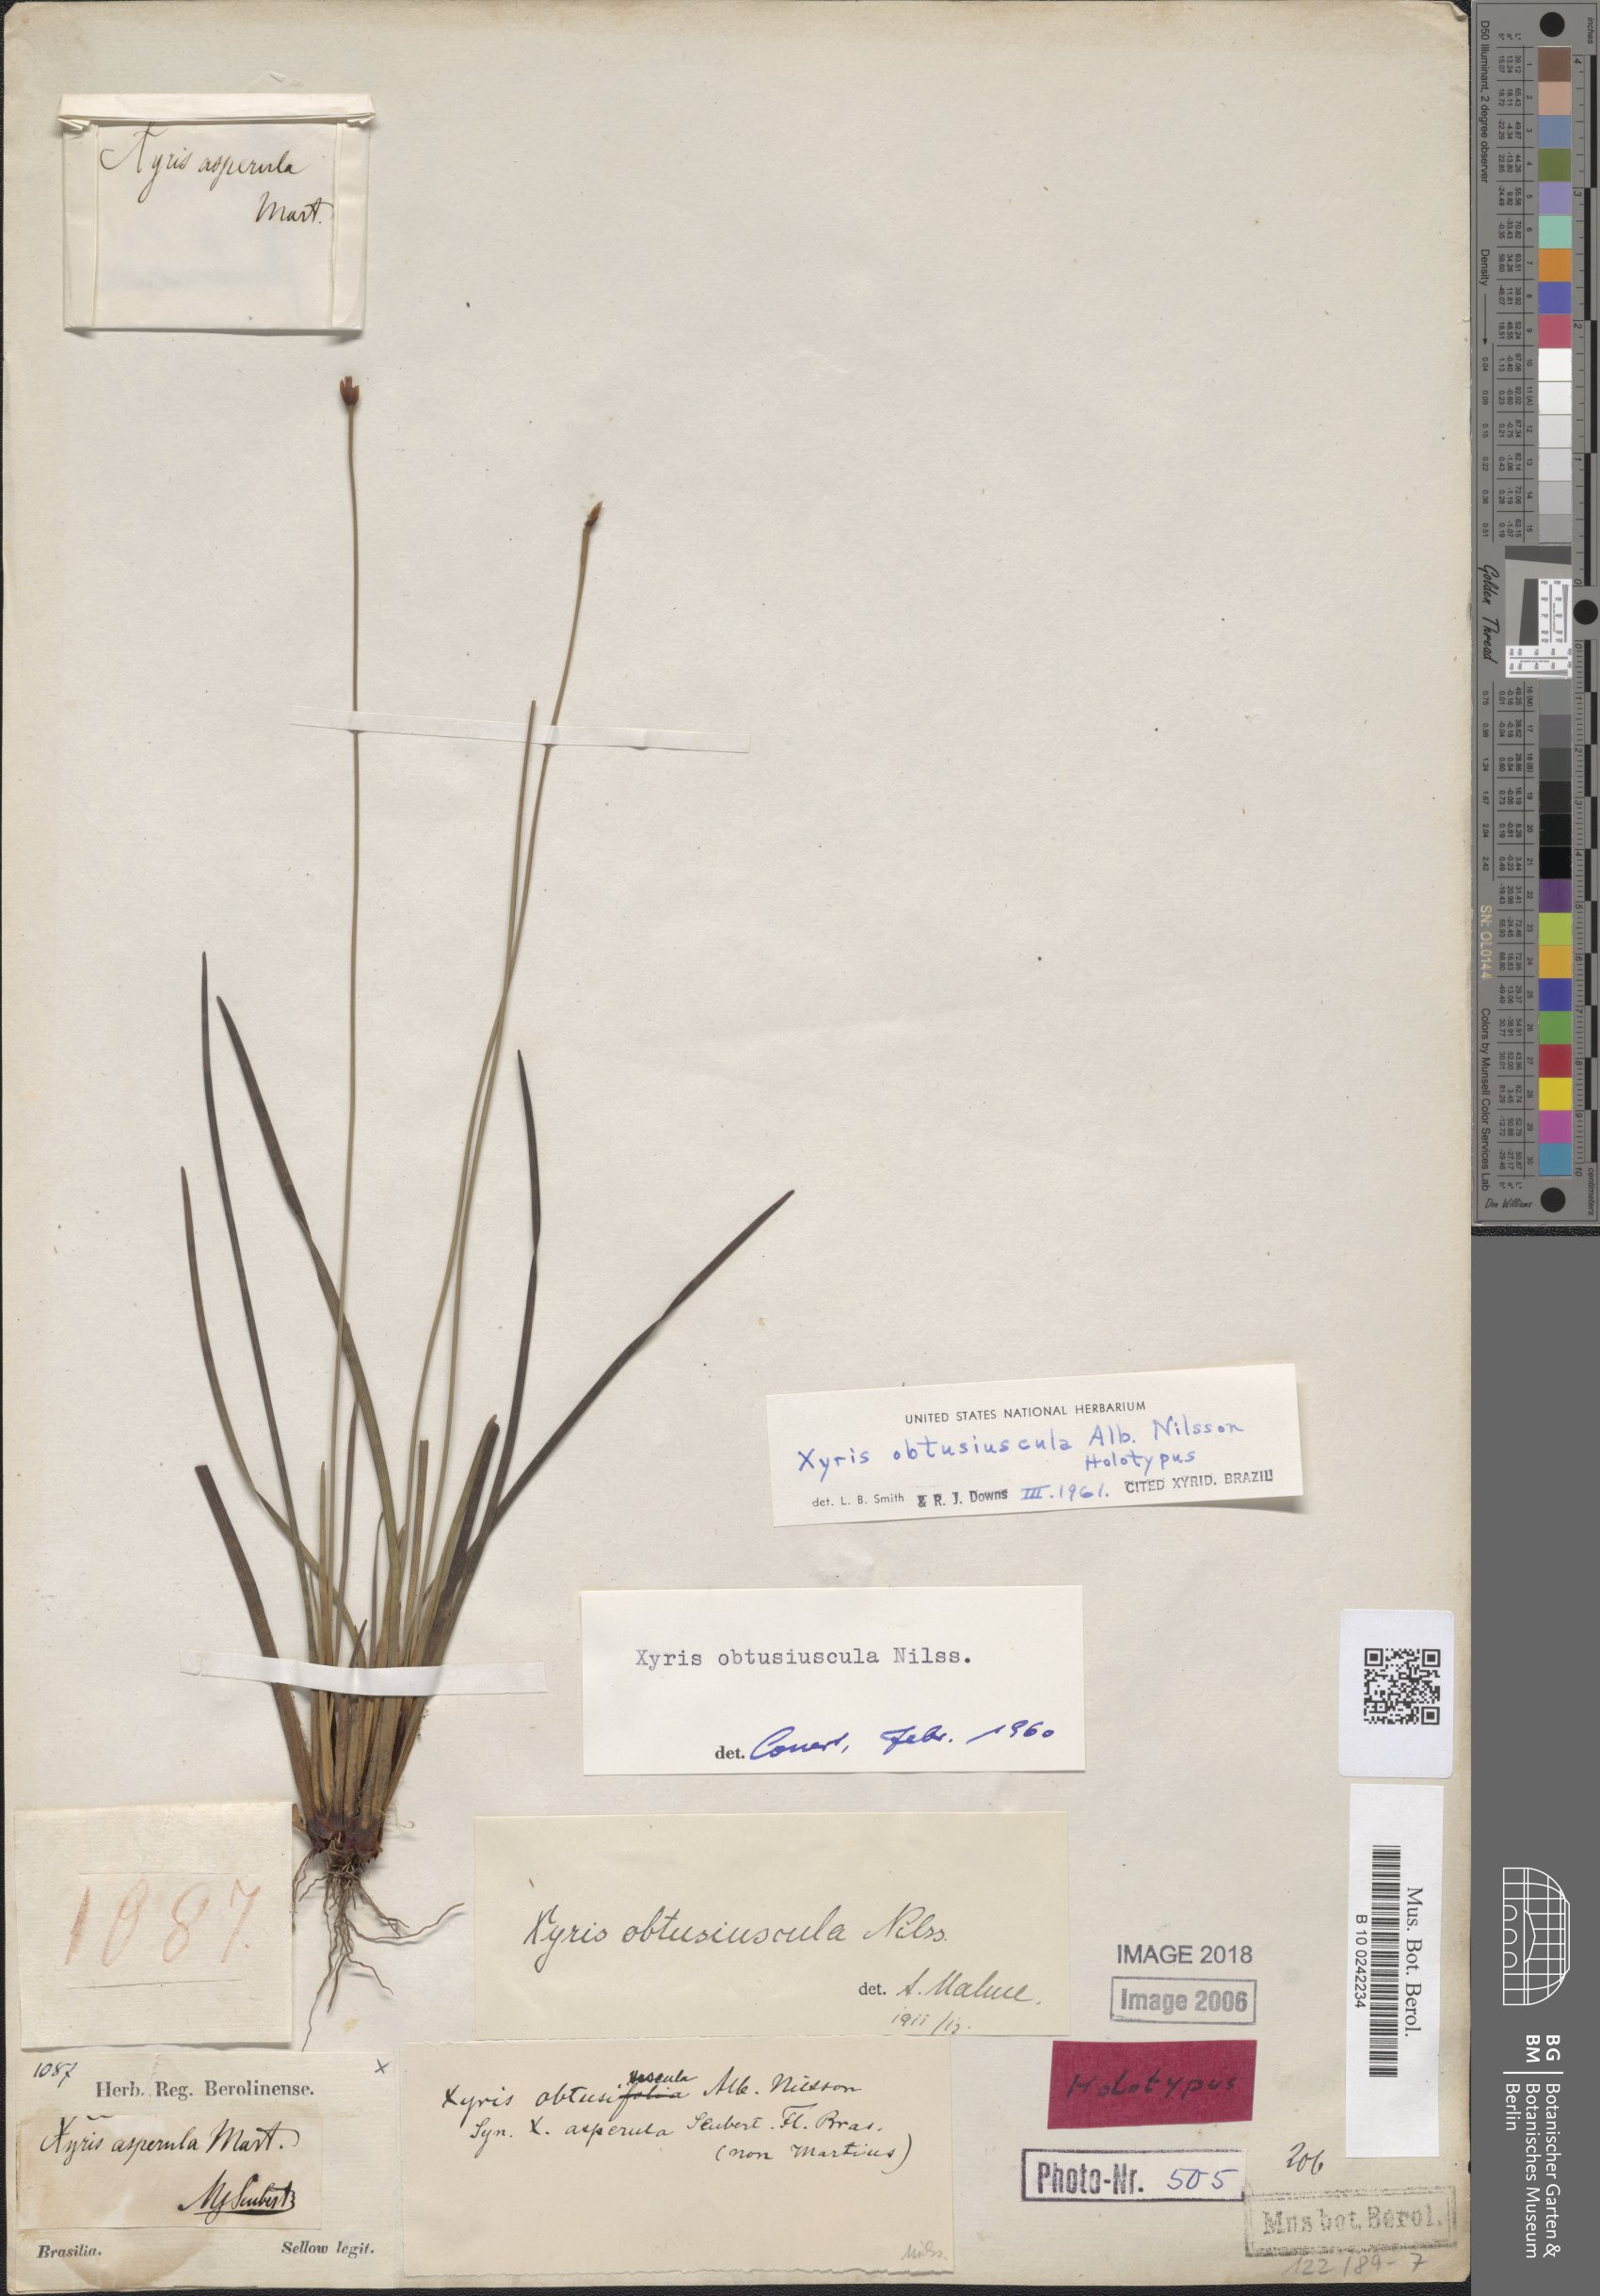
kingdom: Plantae
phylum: Tracheophyta
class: Liliopsida
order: Poales
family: Xyridaceae
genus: Xyris
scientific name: Xyris obtusiuscula
